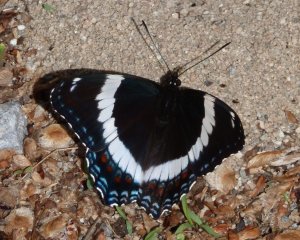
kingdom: Animalia
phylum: Arthropoda
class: Insecta
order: Lepidoptera
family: Nymphalidae
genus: Limenitis
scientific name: Limenitis arthemis
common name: Red-spotted Admiral
